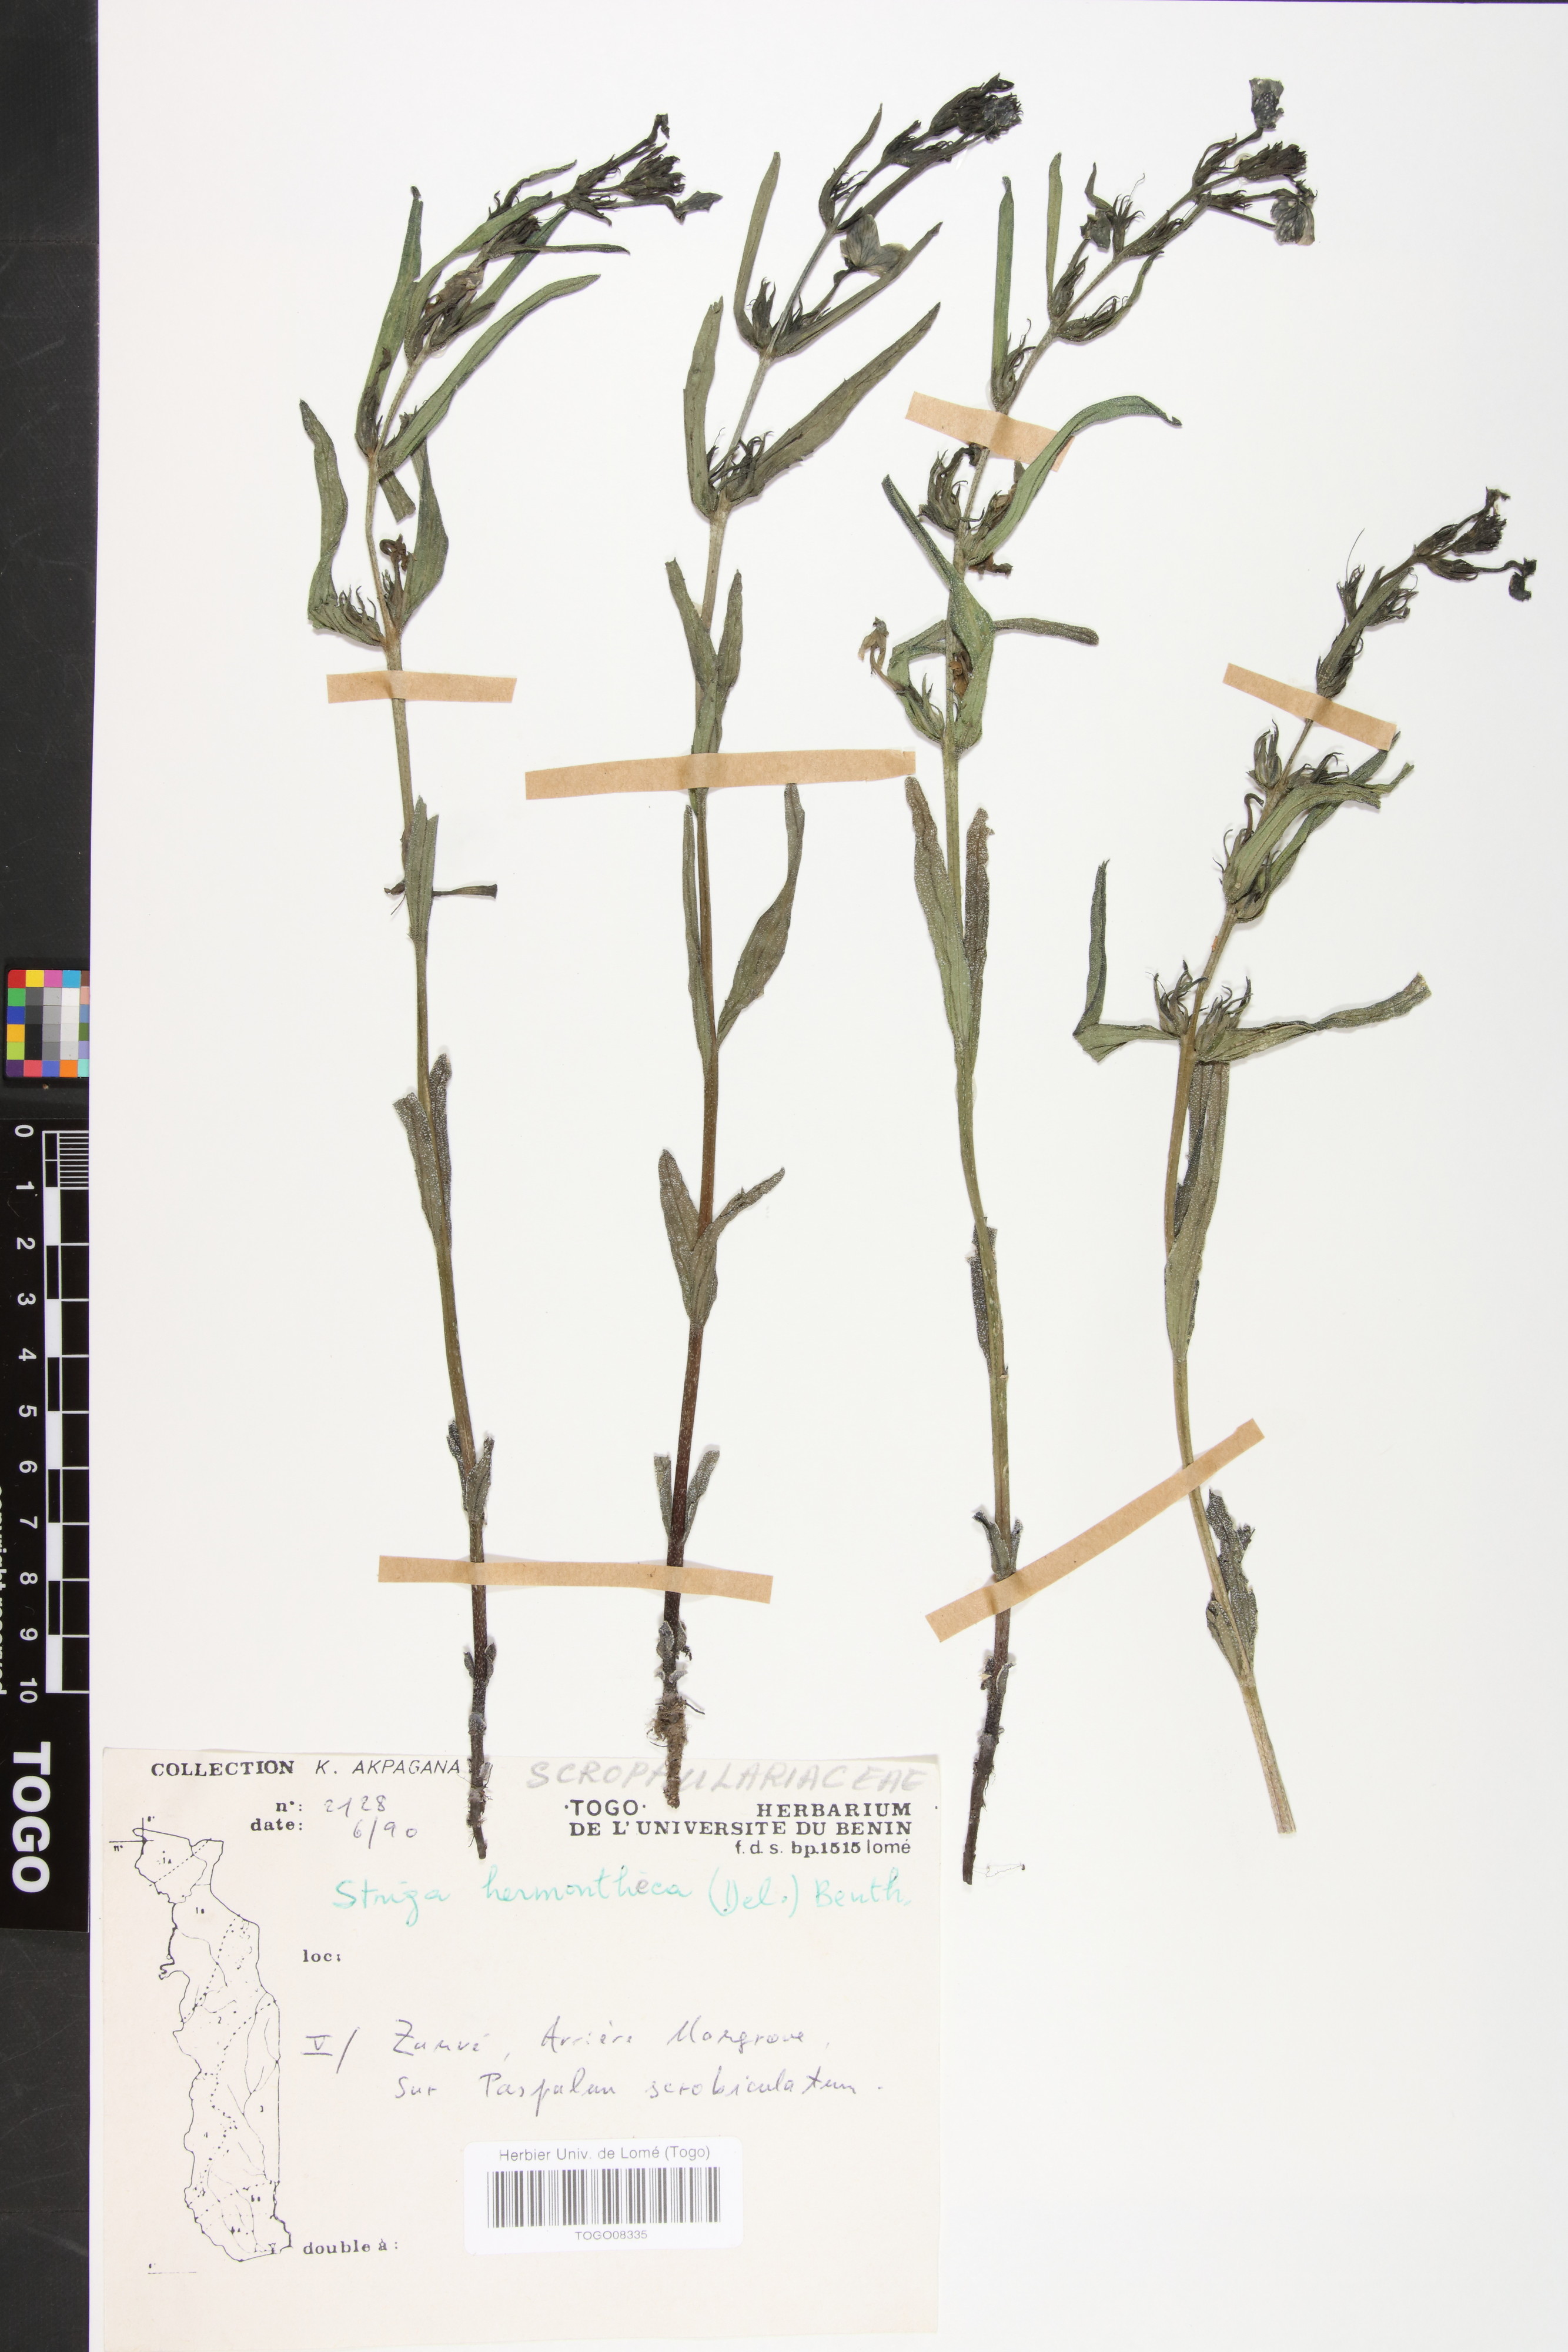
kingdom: Plantae
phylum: Tracheophyta
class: Magnoliopsida
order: Lamiales
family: Orobanchaceae
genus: Striga
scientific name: Striga hermonthica
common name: Purple witchweed
